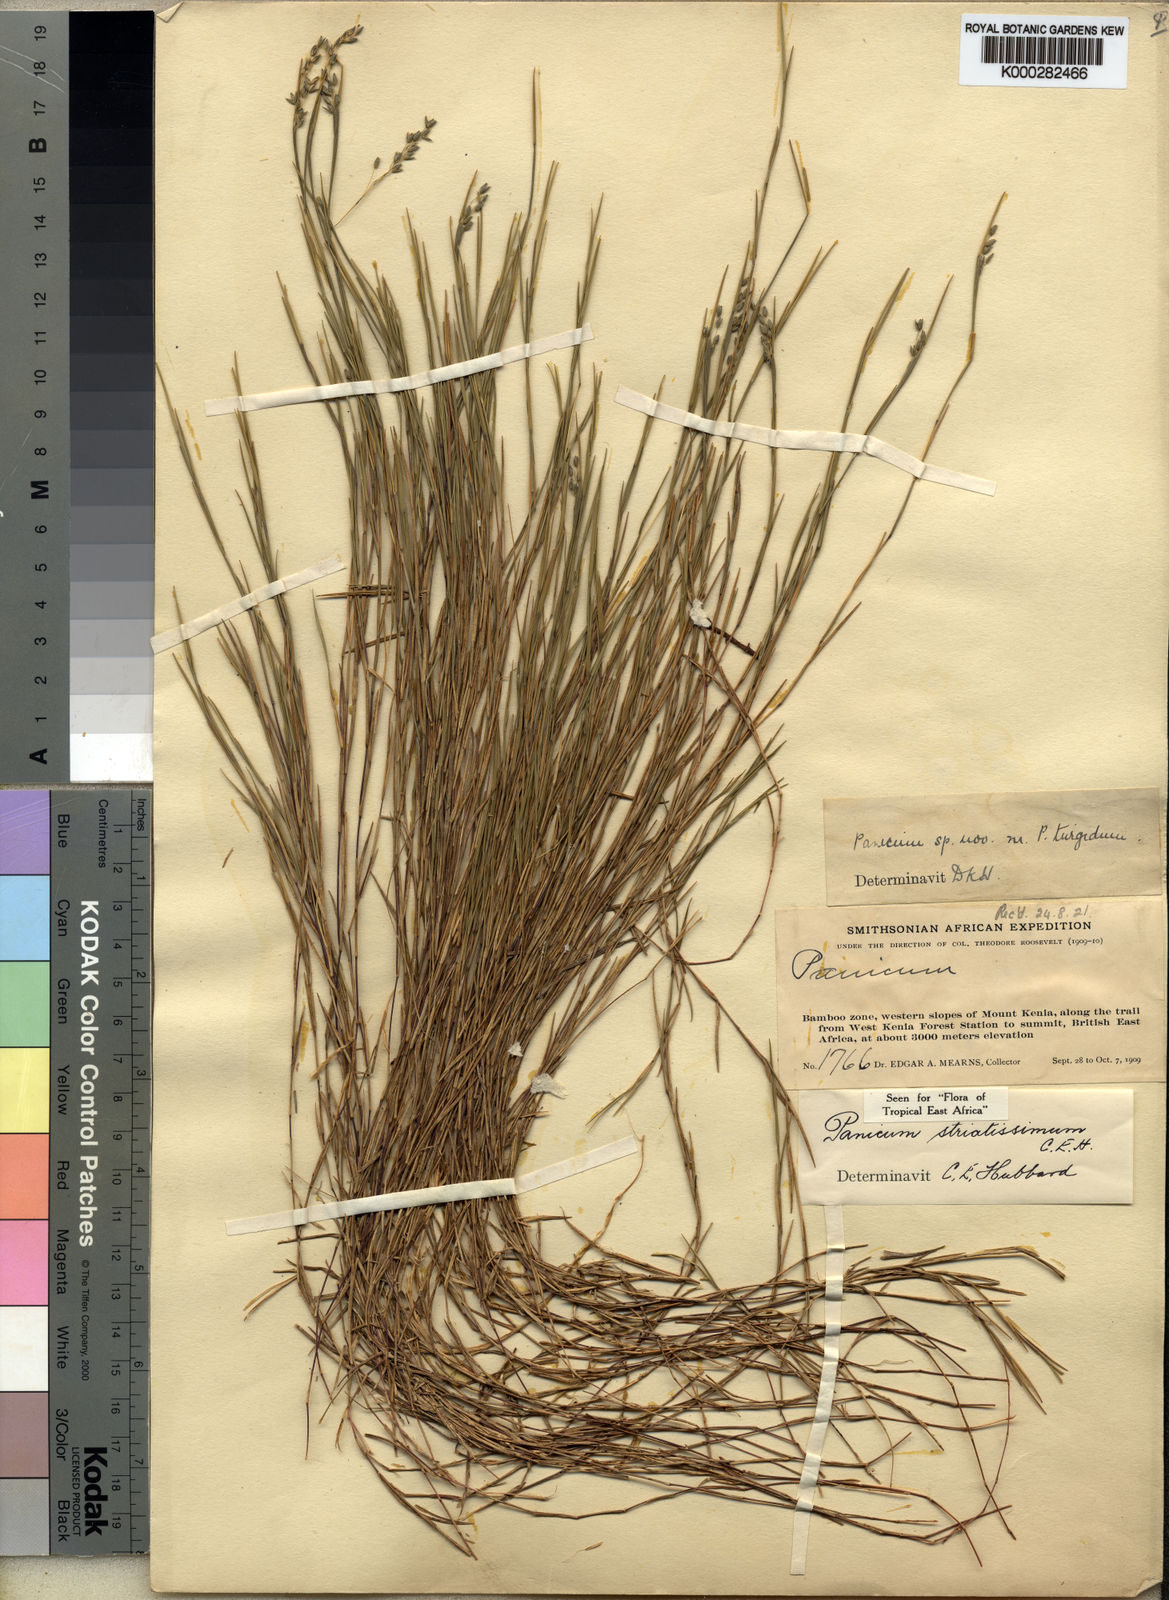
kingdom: Plantae
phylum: Tracheophyta
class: Liliopsida
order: Poales
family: Poaceae
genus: Panicum
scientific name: Panicum eickii
